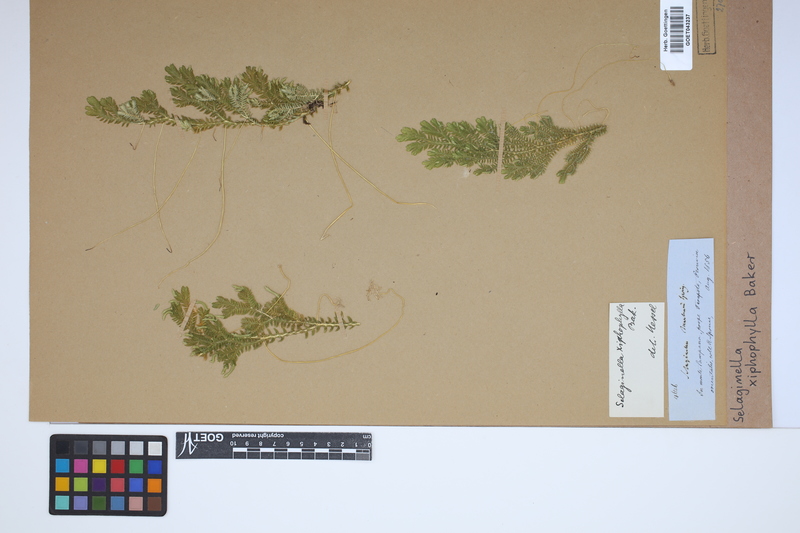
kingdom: Plantae
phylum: Tracheophyta
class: Lycopodiopsida
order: Selaginellales
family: Selaginellaceae
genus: Selaginella
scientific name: Selaginella xiphophylla
